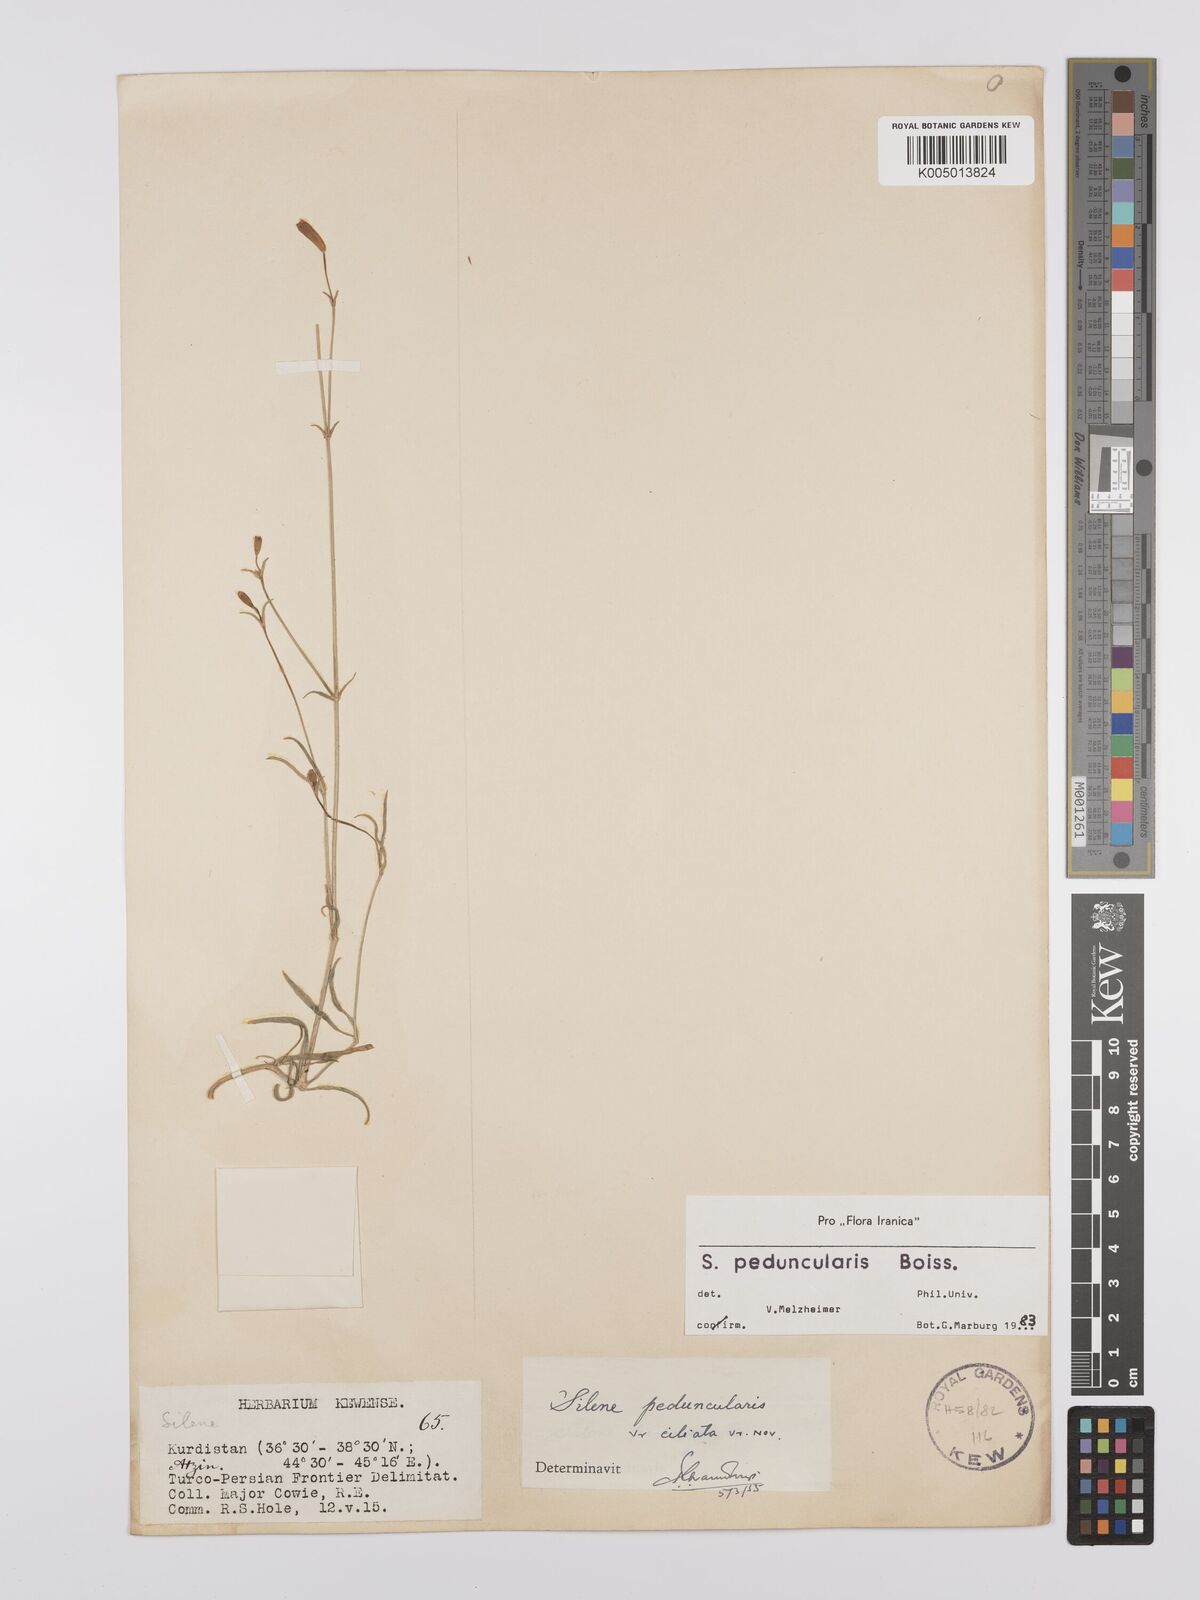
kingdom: Plantae
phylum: Tracheophyta
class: Magnoliopsida
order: Caryophyllales
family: Caryophyllaceae
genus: Silene
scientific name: Silene peduncularis
